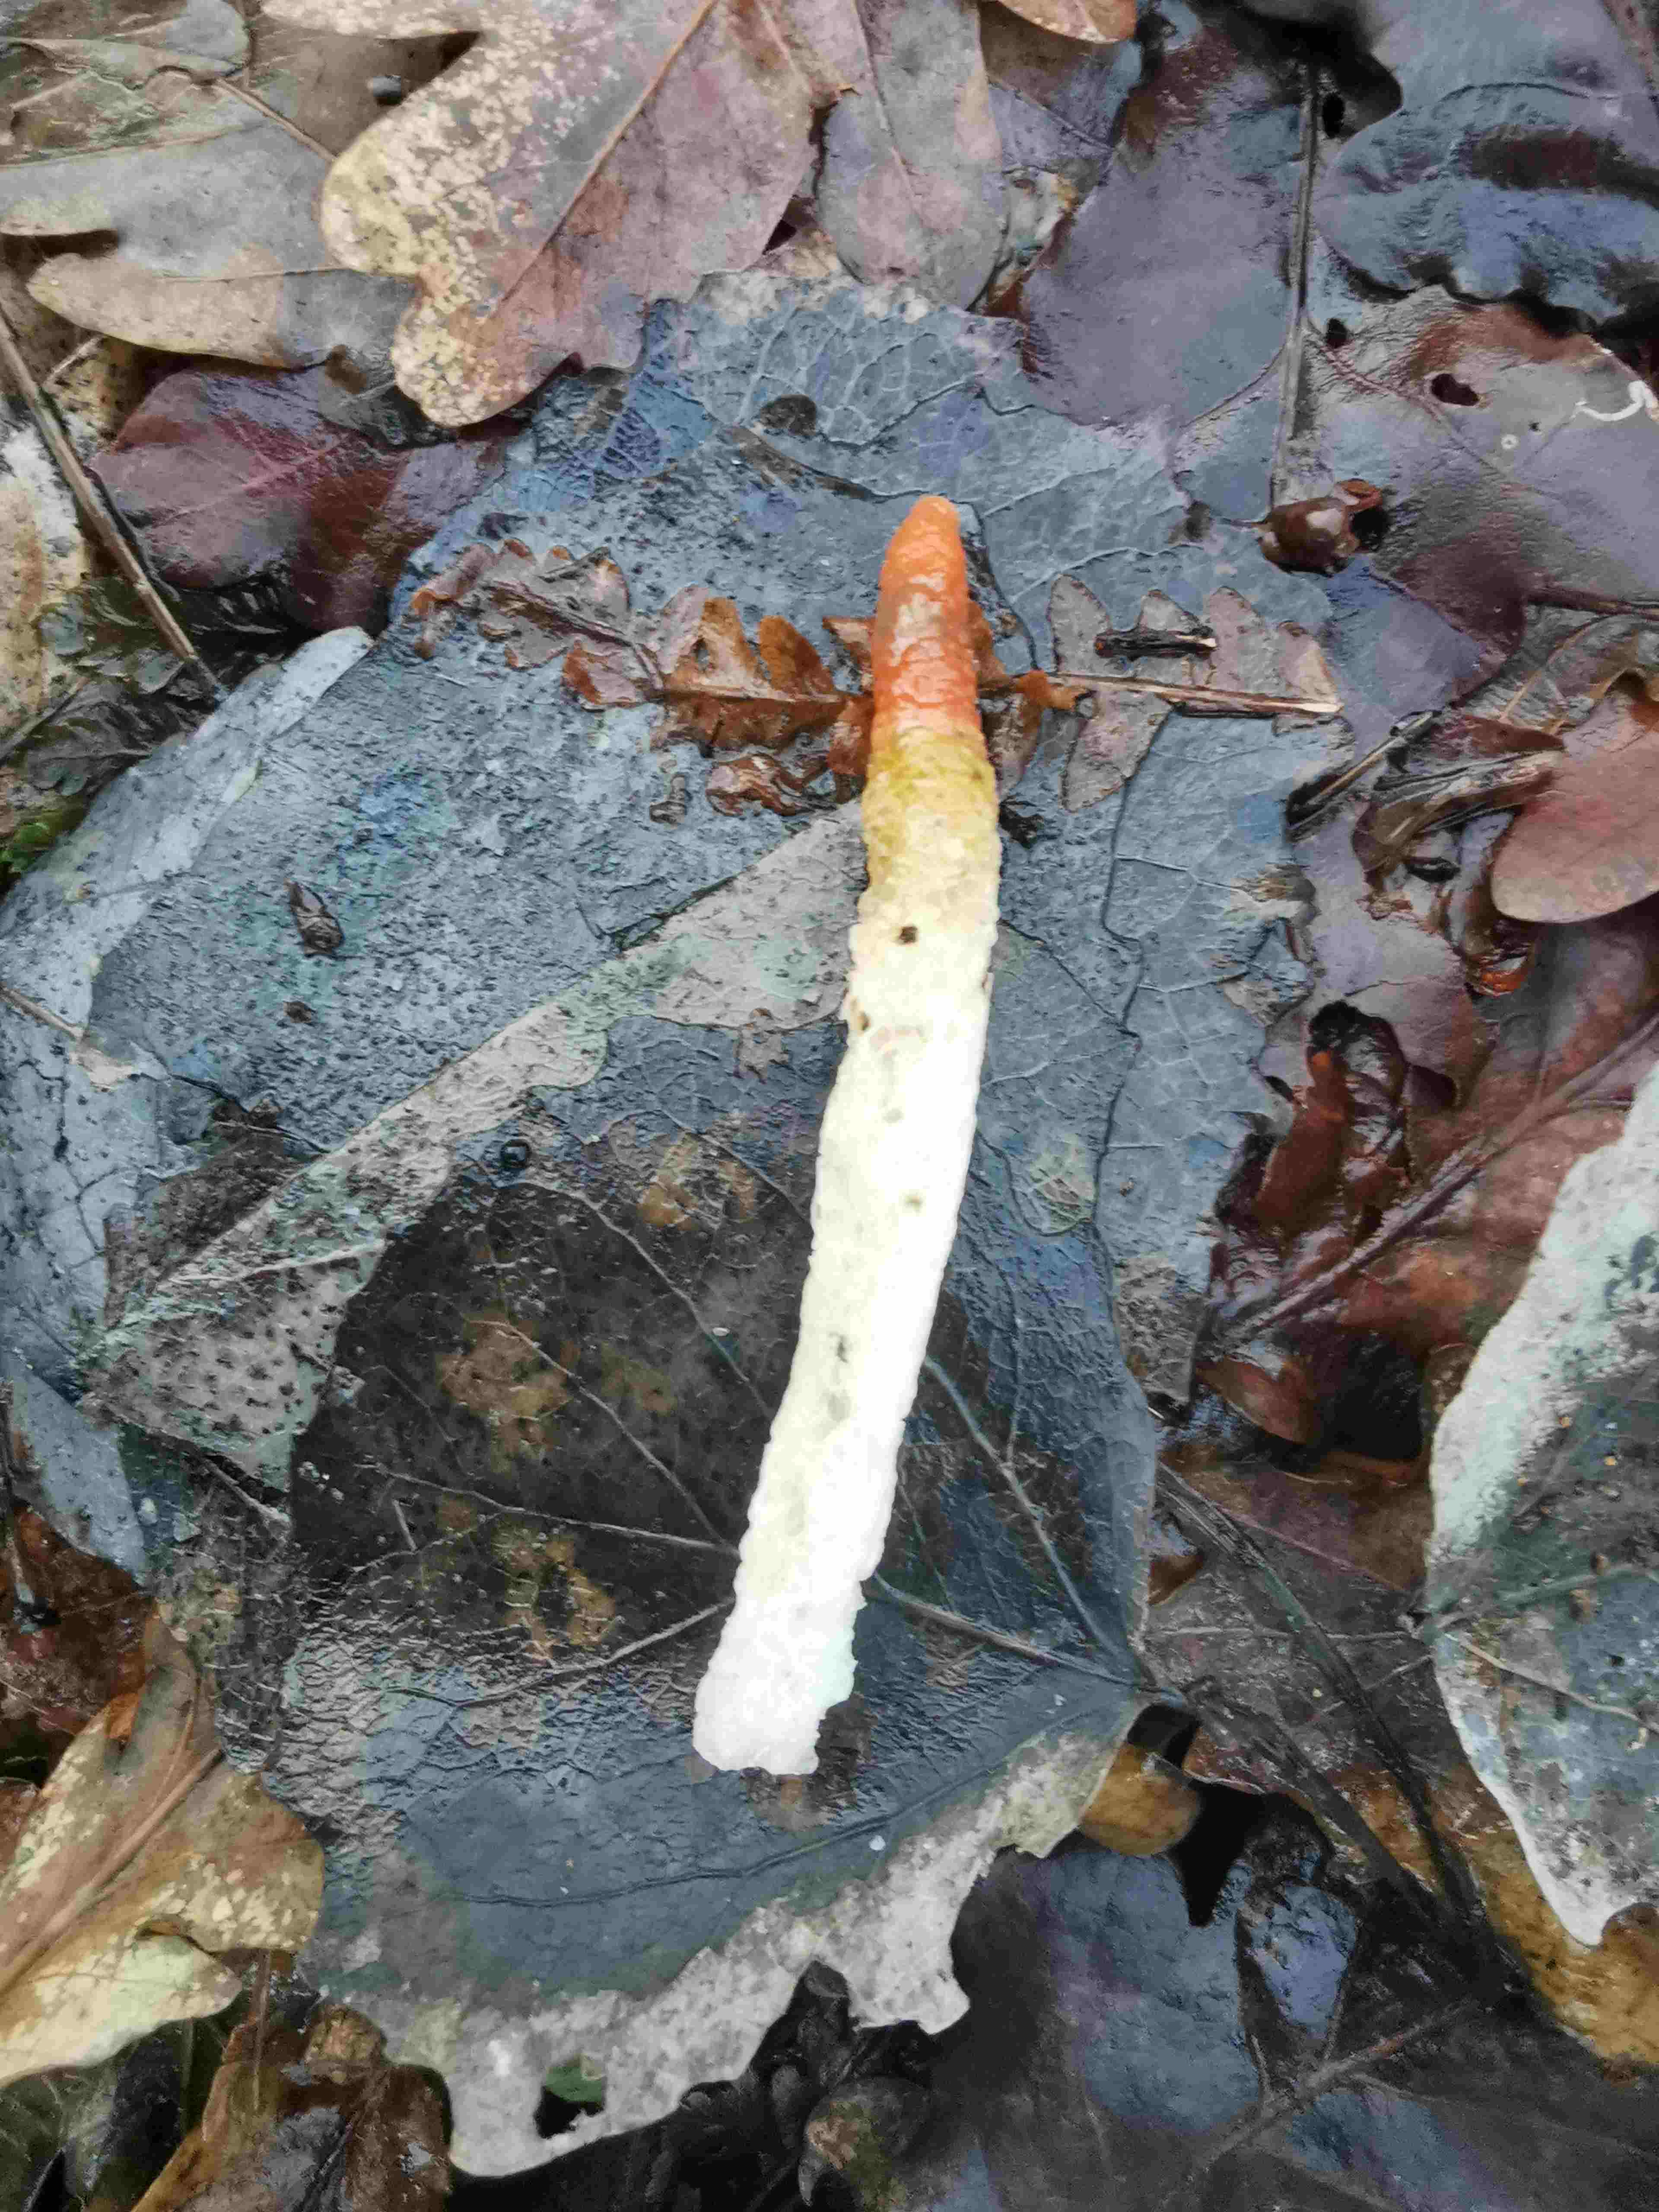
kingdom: Fungi
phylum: Basidiomycota
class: Agaricomycetes
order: Phallales
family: Phallaceae
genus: Mutinus
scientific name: Mutinus caninus
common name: hunde-stinksvamp
